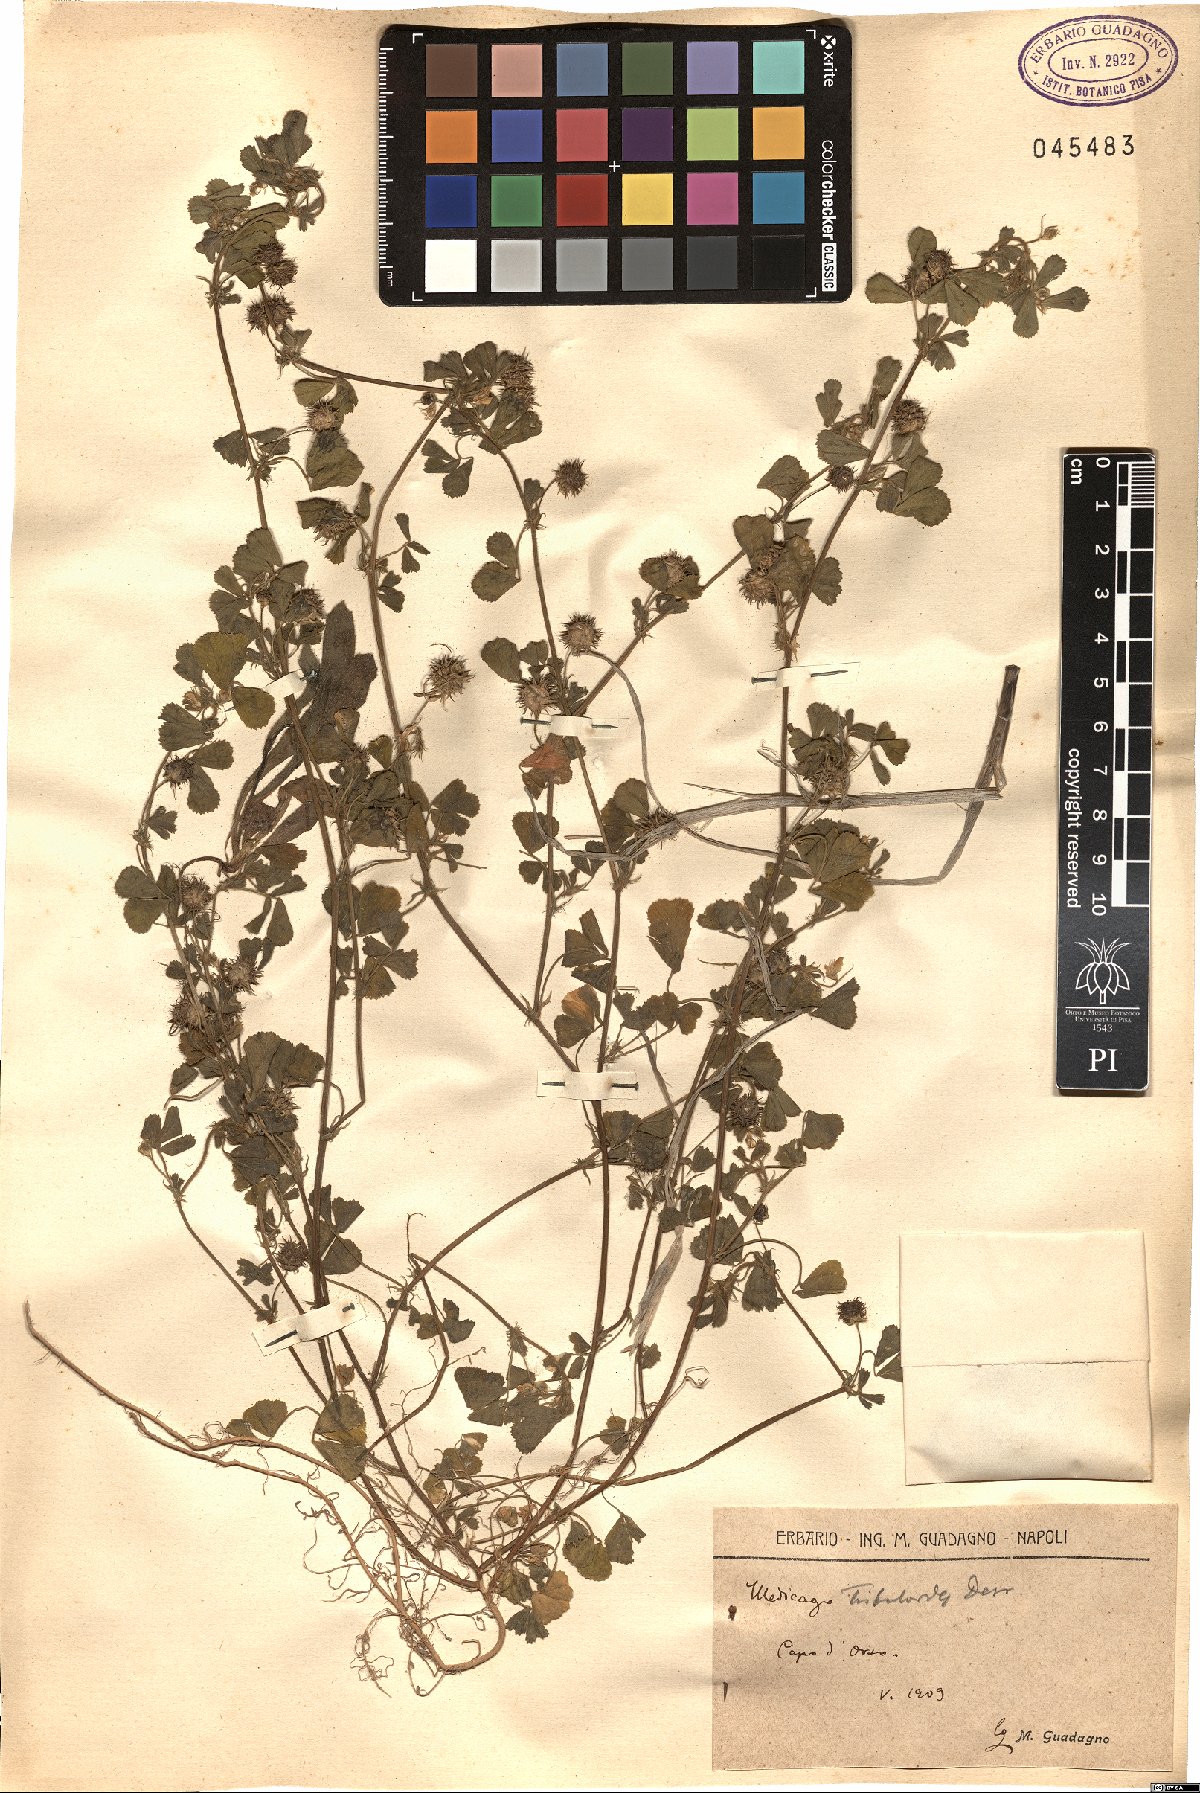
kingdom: Plantae
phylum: Tracheophyta
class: Magnoliopsida
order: Fabales
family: Fabaceae
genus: Medicago
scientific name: Medicago truncatula
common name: Strong-spined medick
